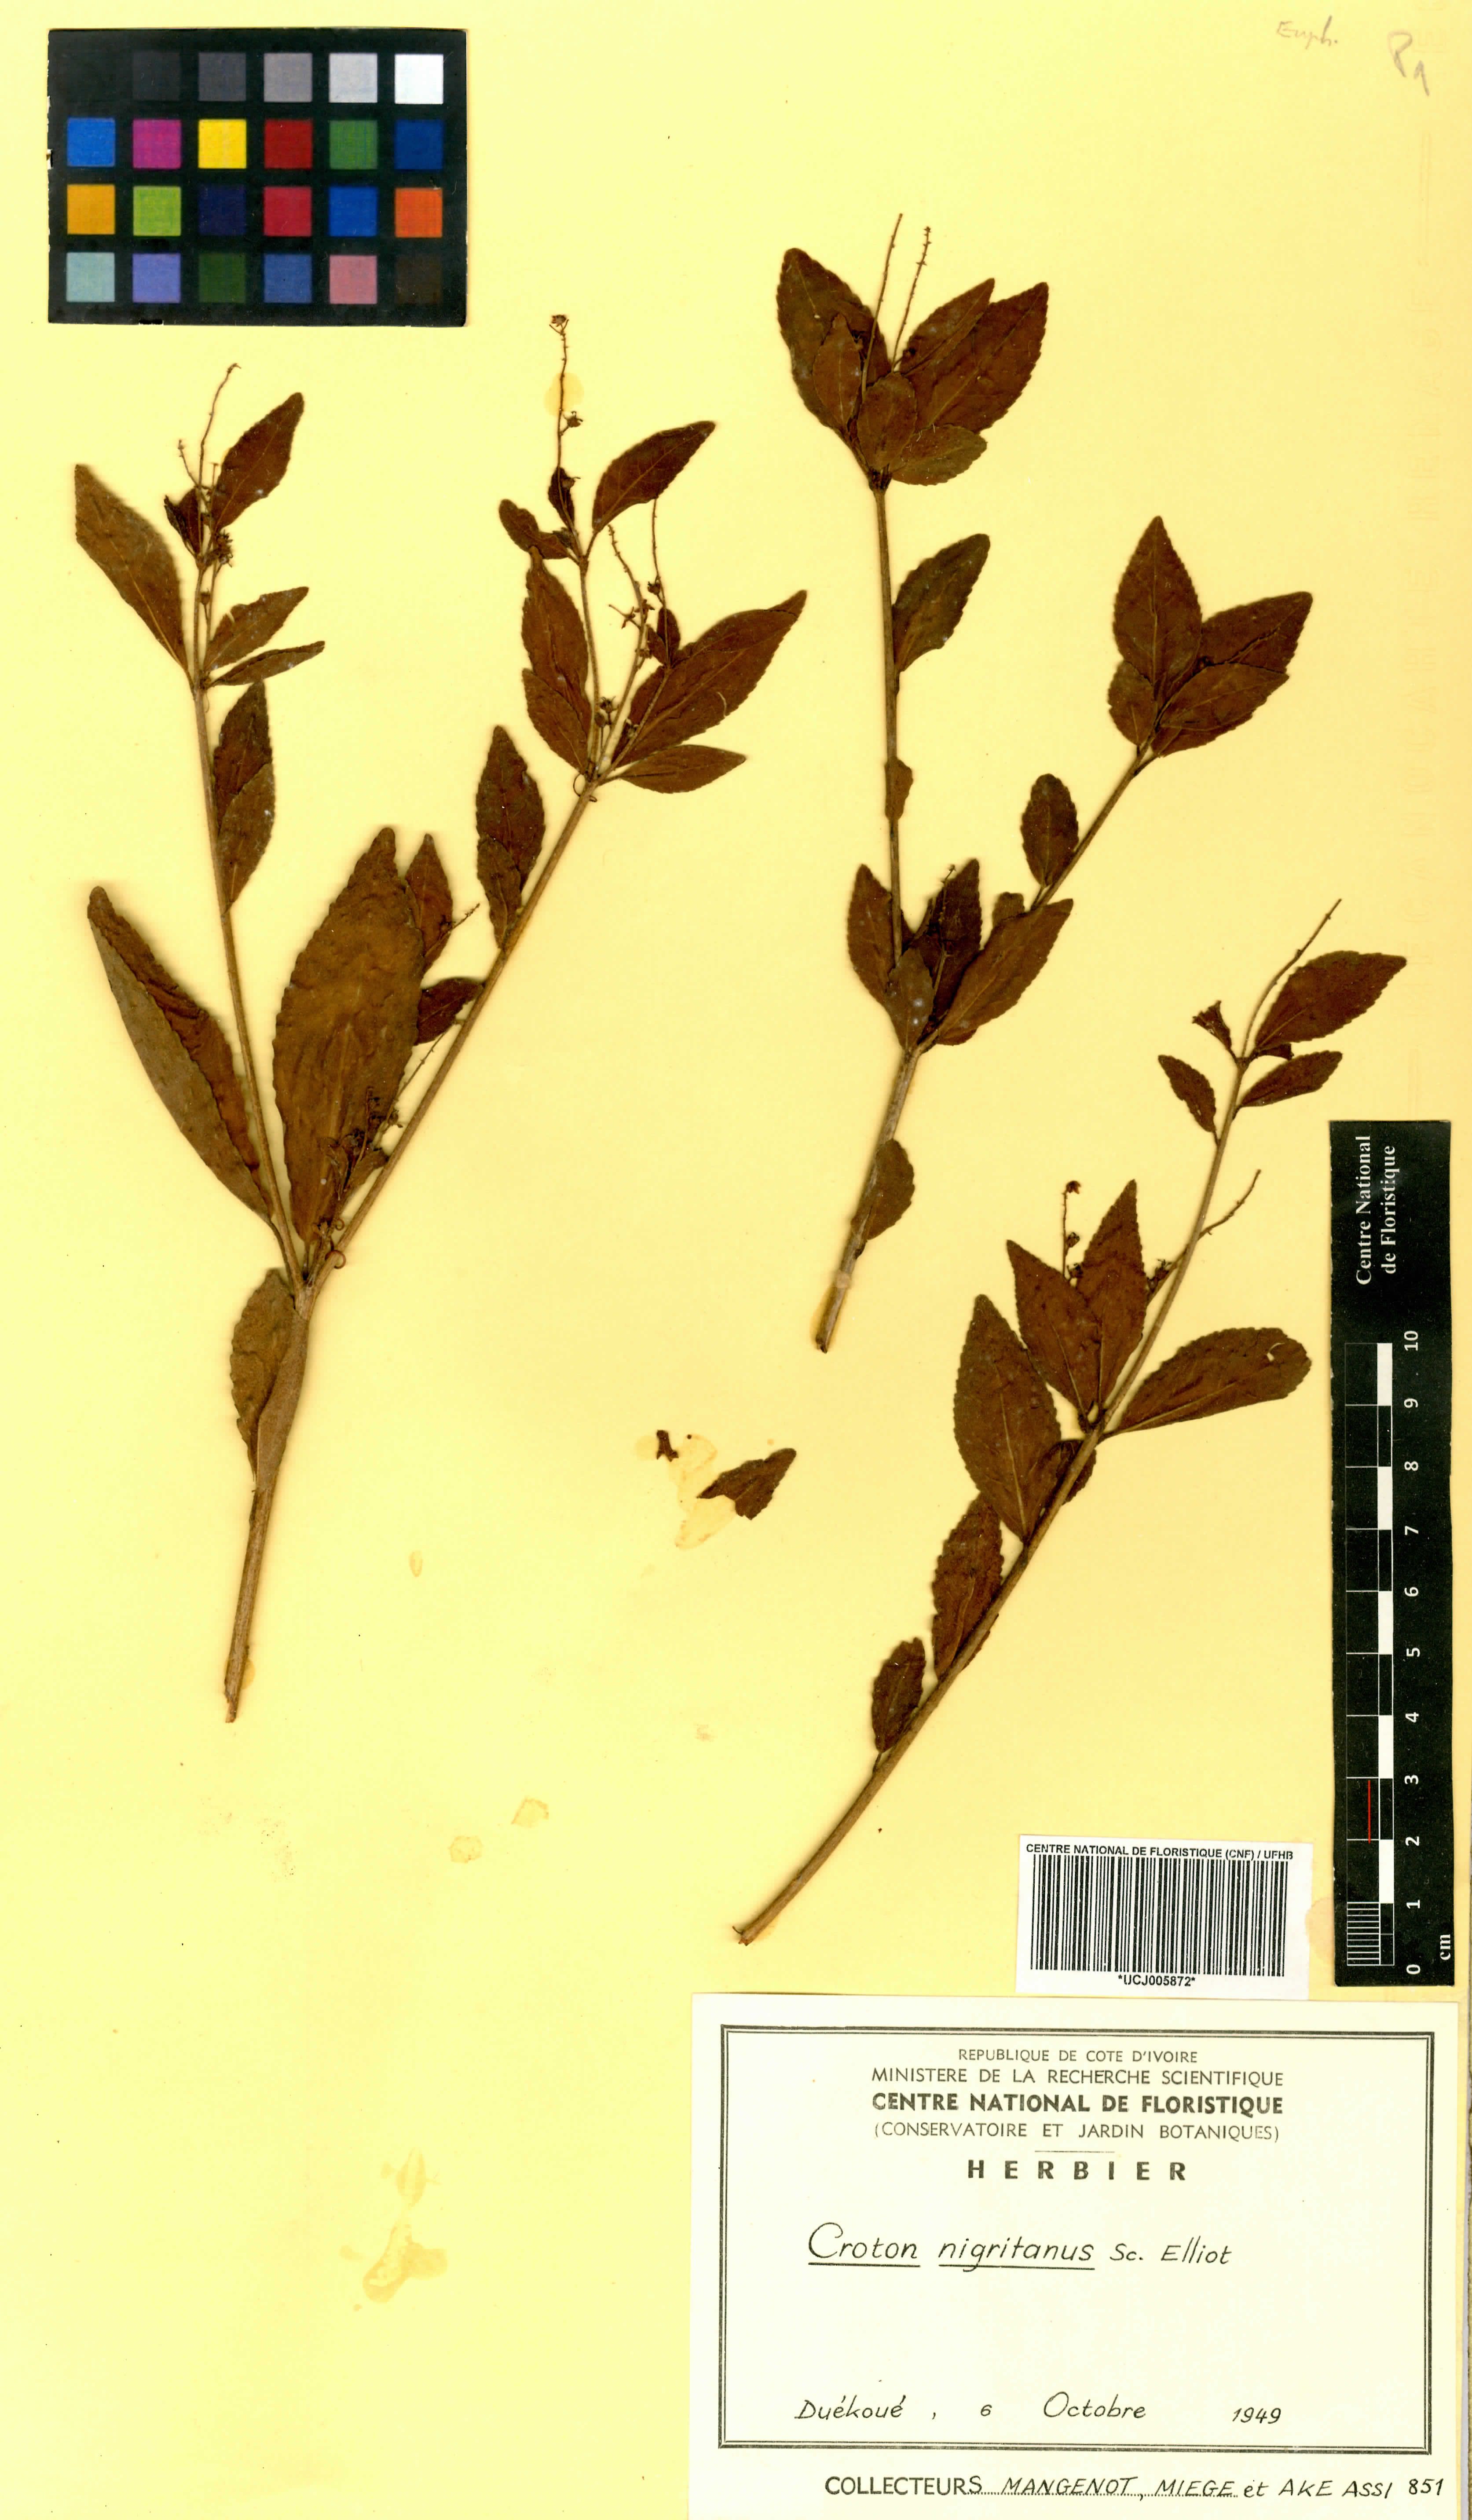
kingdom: Plantae
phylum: Tracheophyta
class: Magnoliopsida
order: Malpighiales
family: Euphorbiaceae
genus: Croton
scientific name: Croton nigritanus
